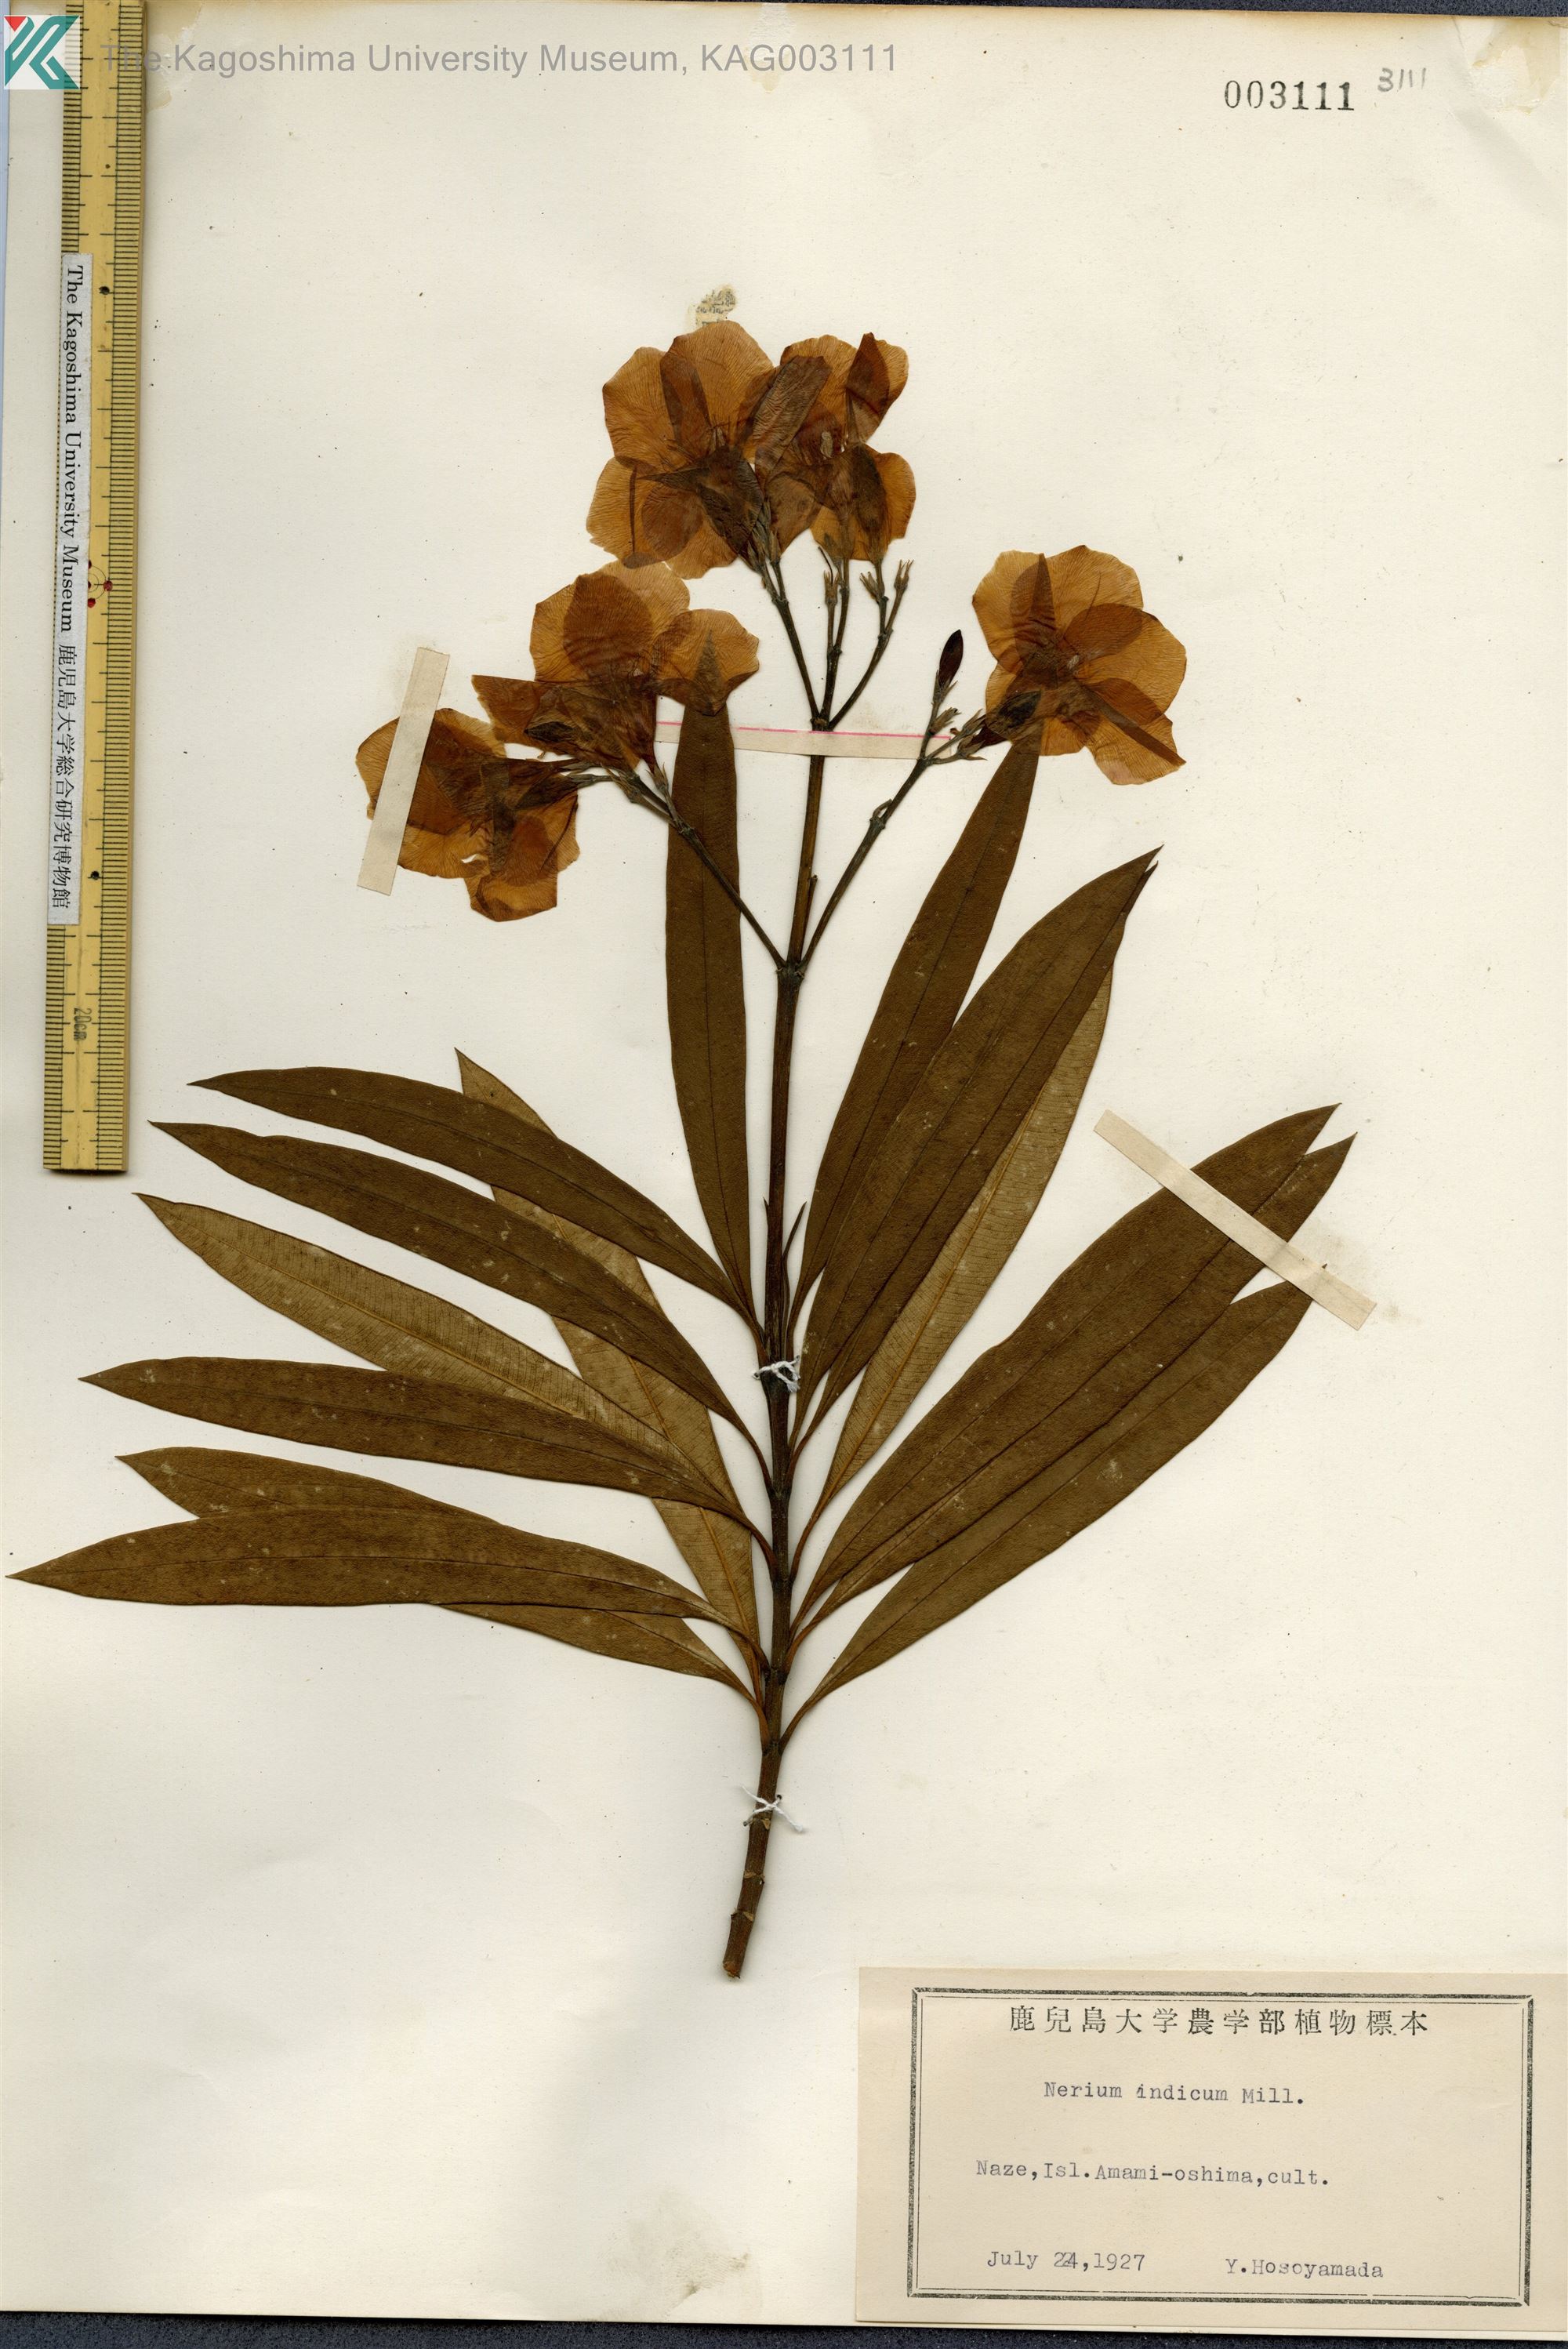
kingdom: Plantae
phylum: Tracheophyta
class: Magnoliopsida
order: Gentianales
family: Apocynaceae
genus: Nerium
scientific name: Nerium indicum
